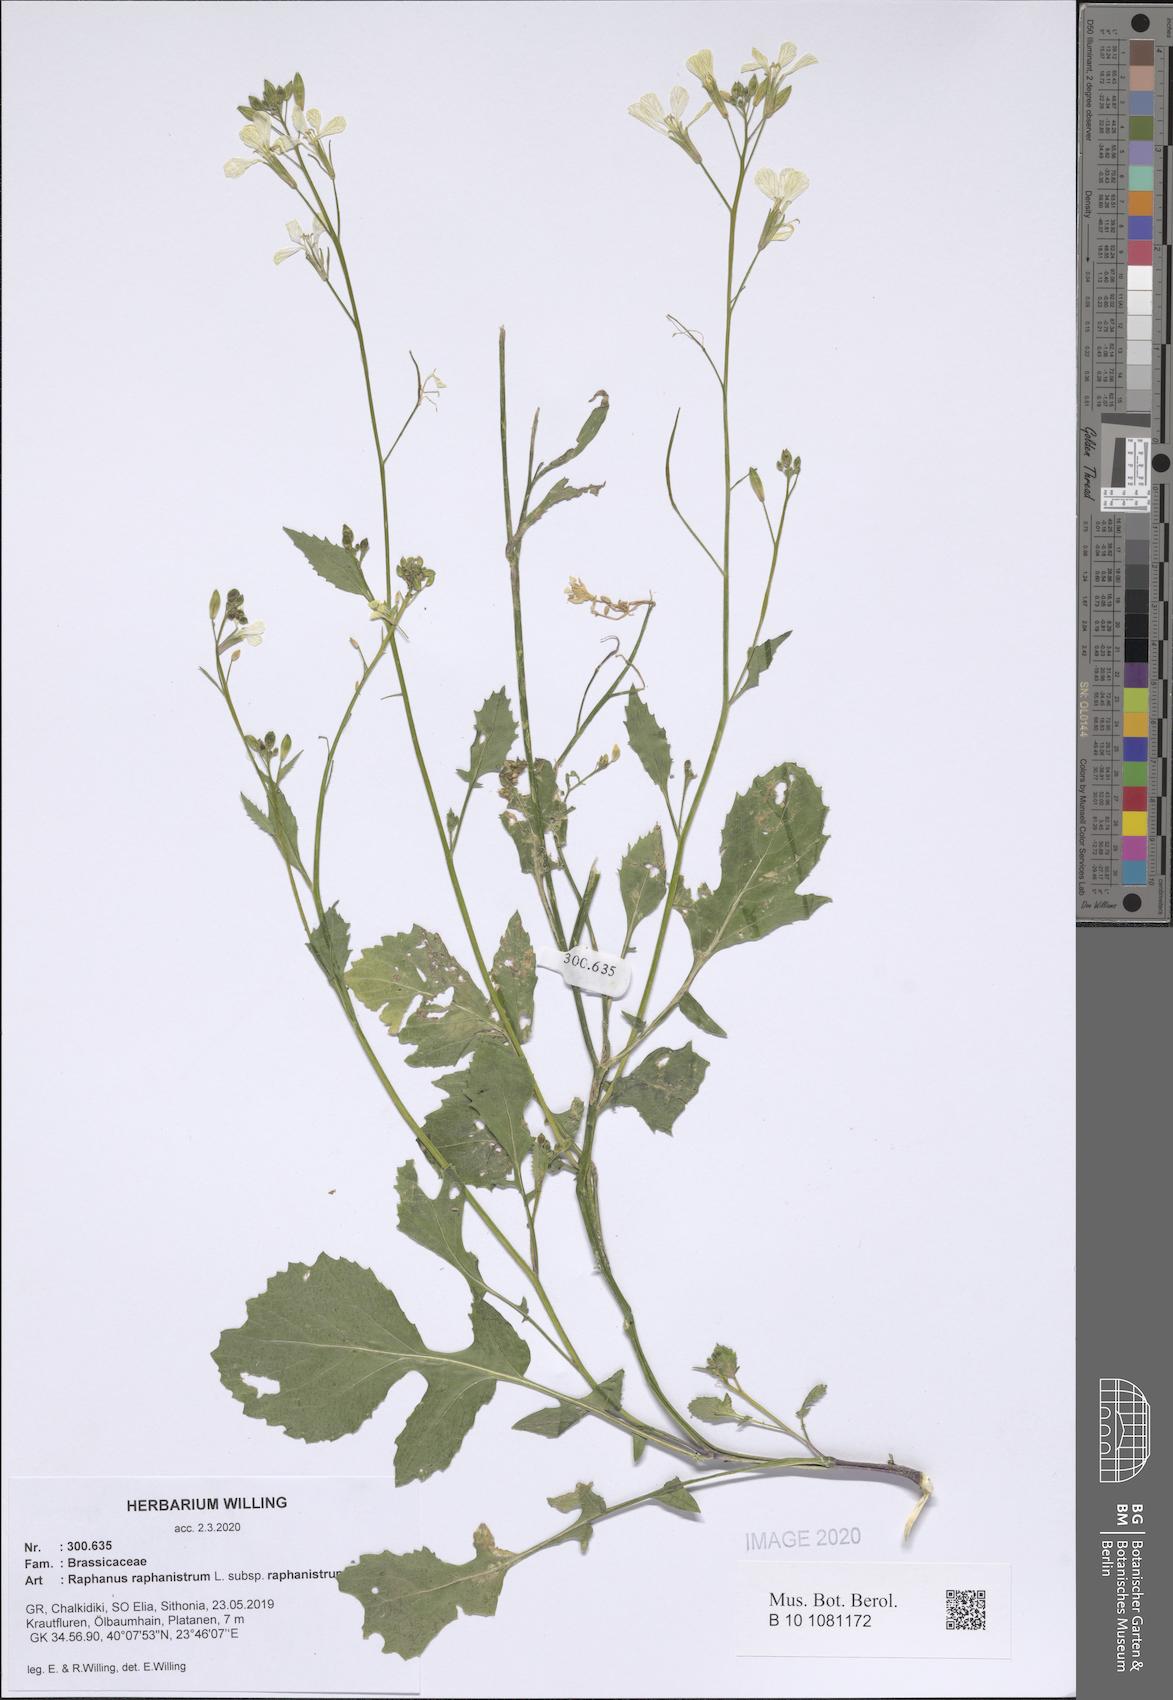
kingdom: Plantae
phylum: Tracheophyta
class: Magnoliopsida
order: Brassicales
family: Brassicaceae
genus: Raphanus
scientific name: Raphanus raphanistrum
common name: Wild radish
